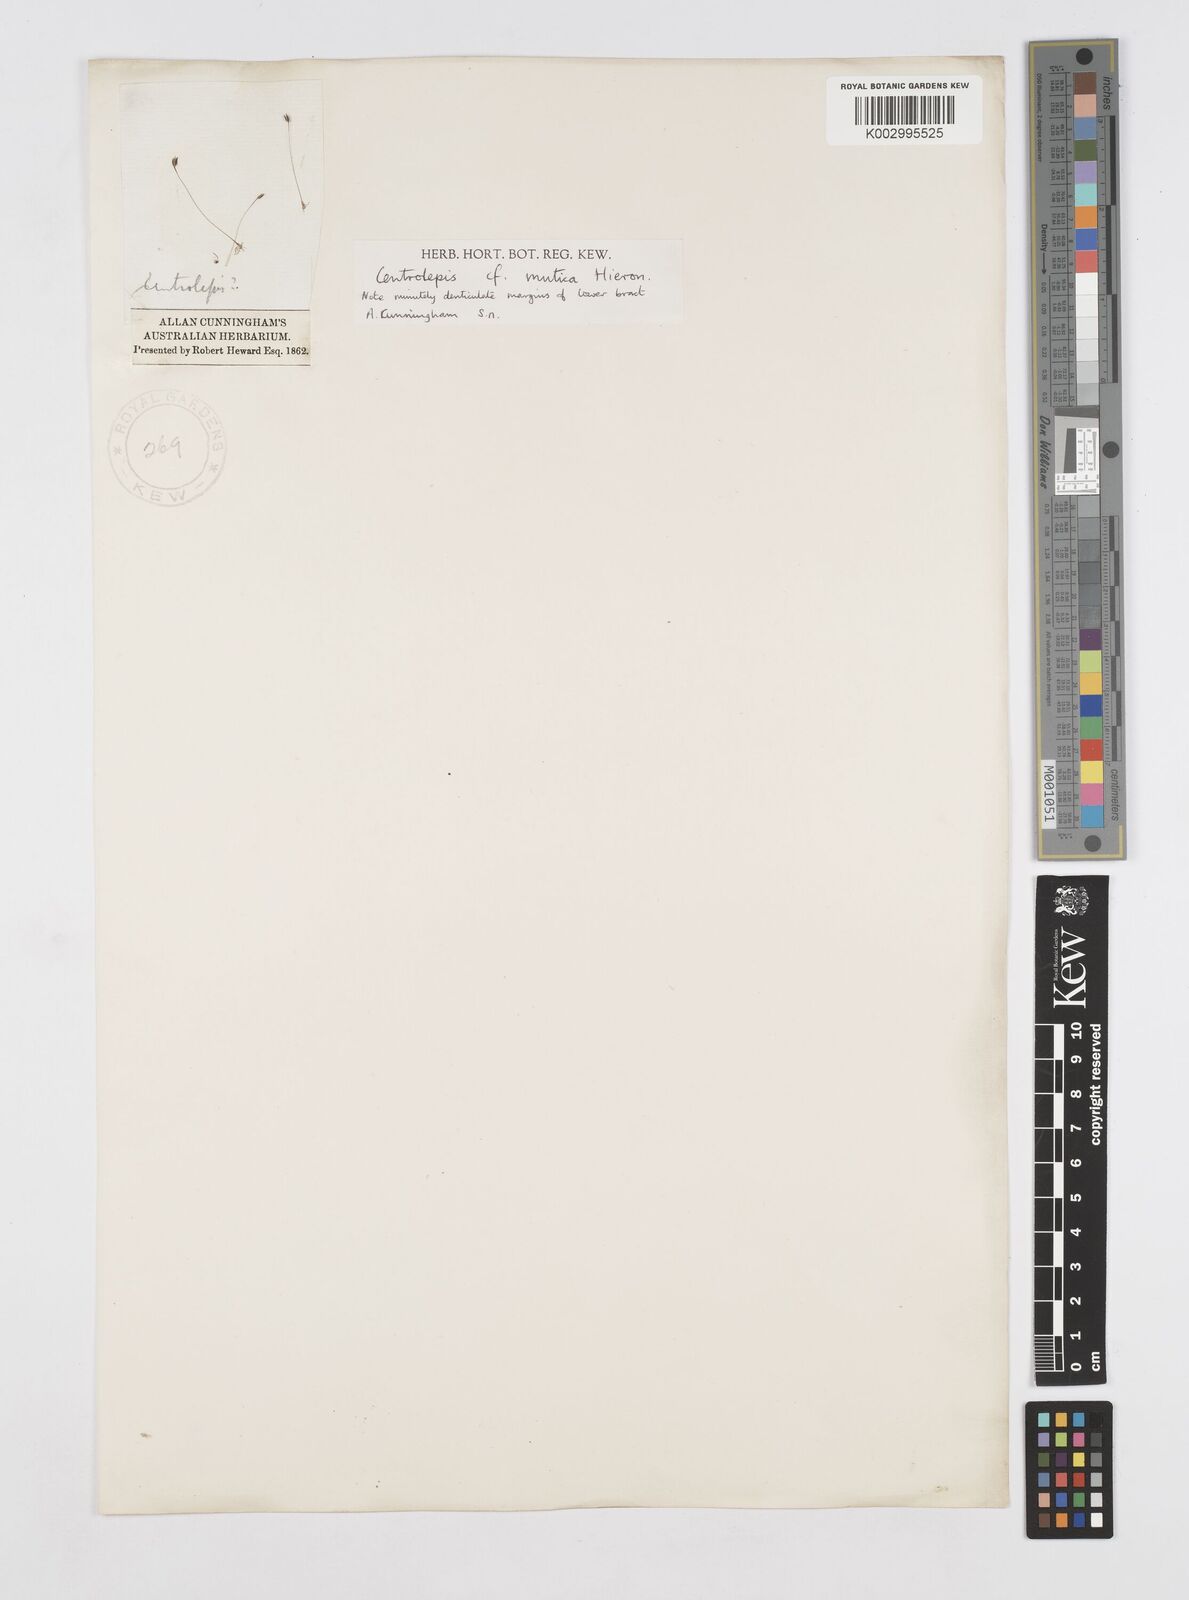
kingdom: Plantae
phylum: Tracheophyta
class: Liliopsida
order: Poales
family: Restionaceae
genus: Centrolepis
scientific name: Centrolepis mutica
